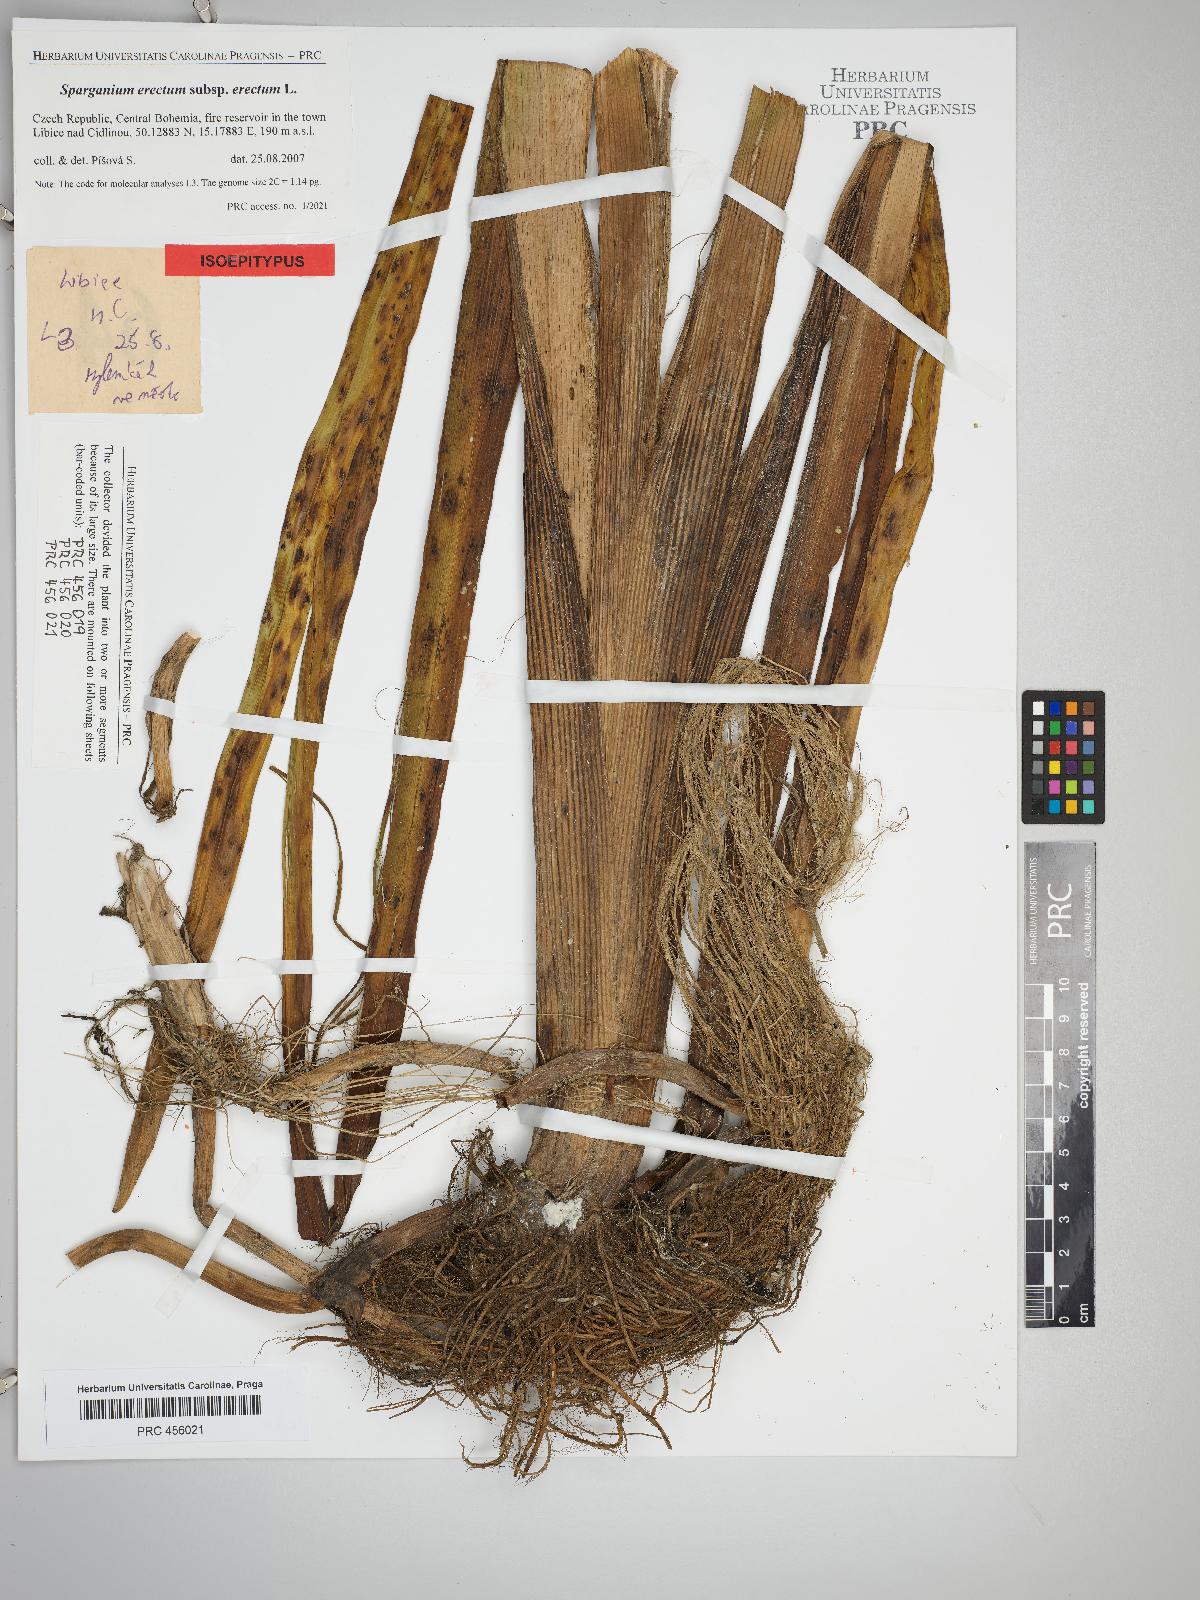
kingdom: Plantae
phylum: Tracheophyta
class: Liliopsida
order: Poales
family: Typhaceae
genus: Sparganium
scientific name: Sparganium erectum
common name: Branched bur-reed
